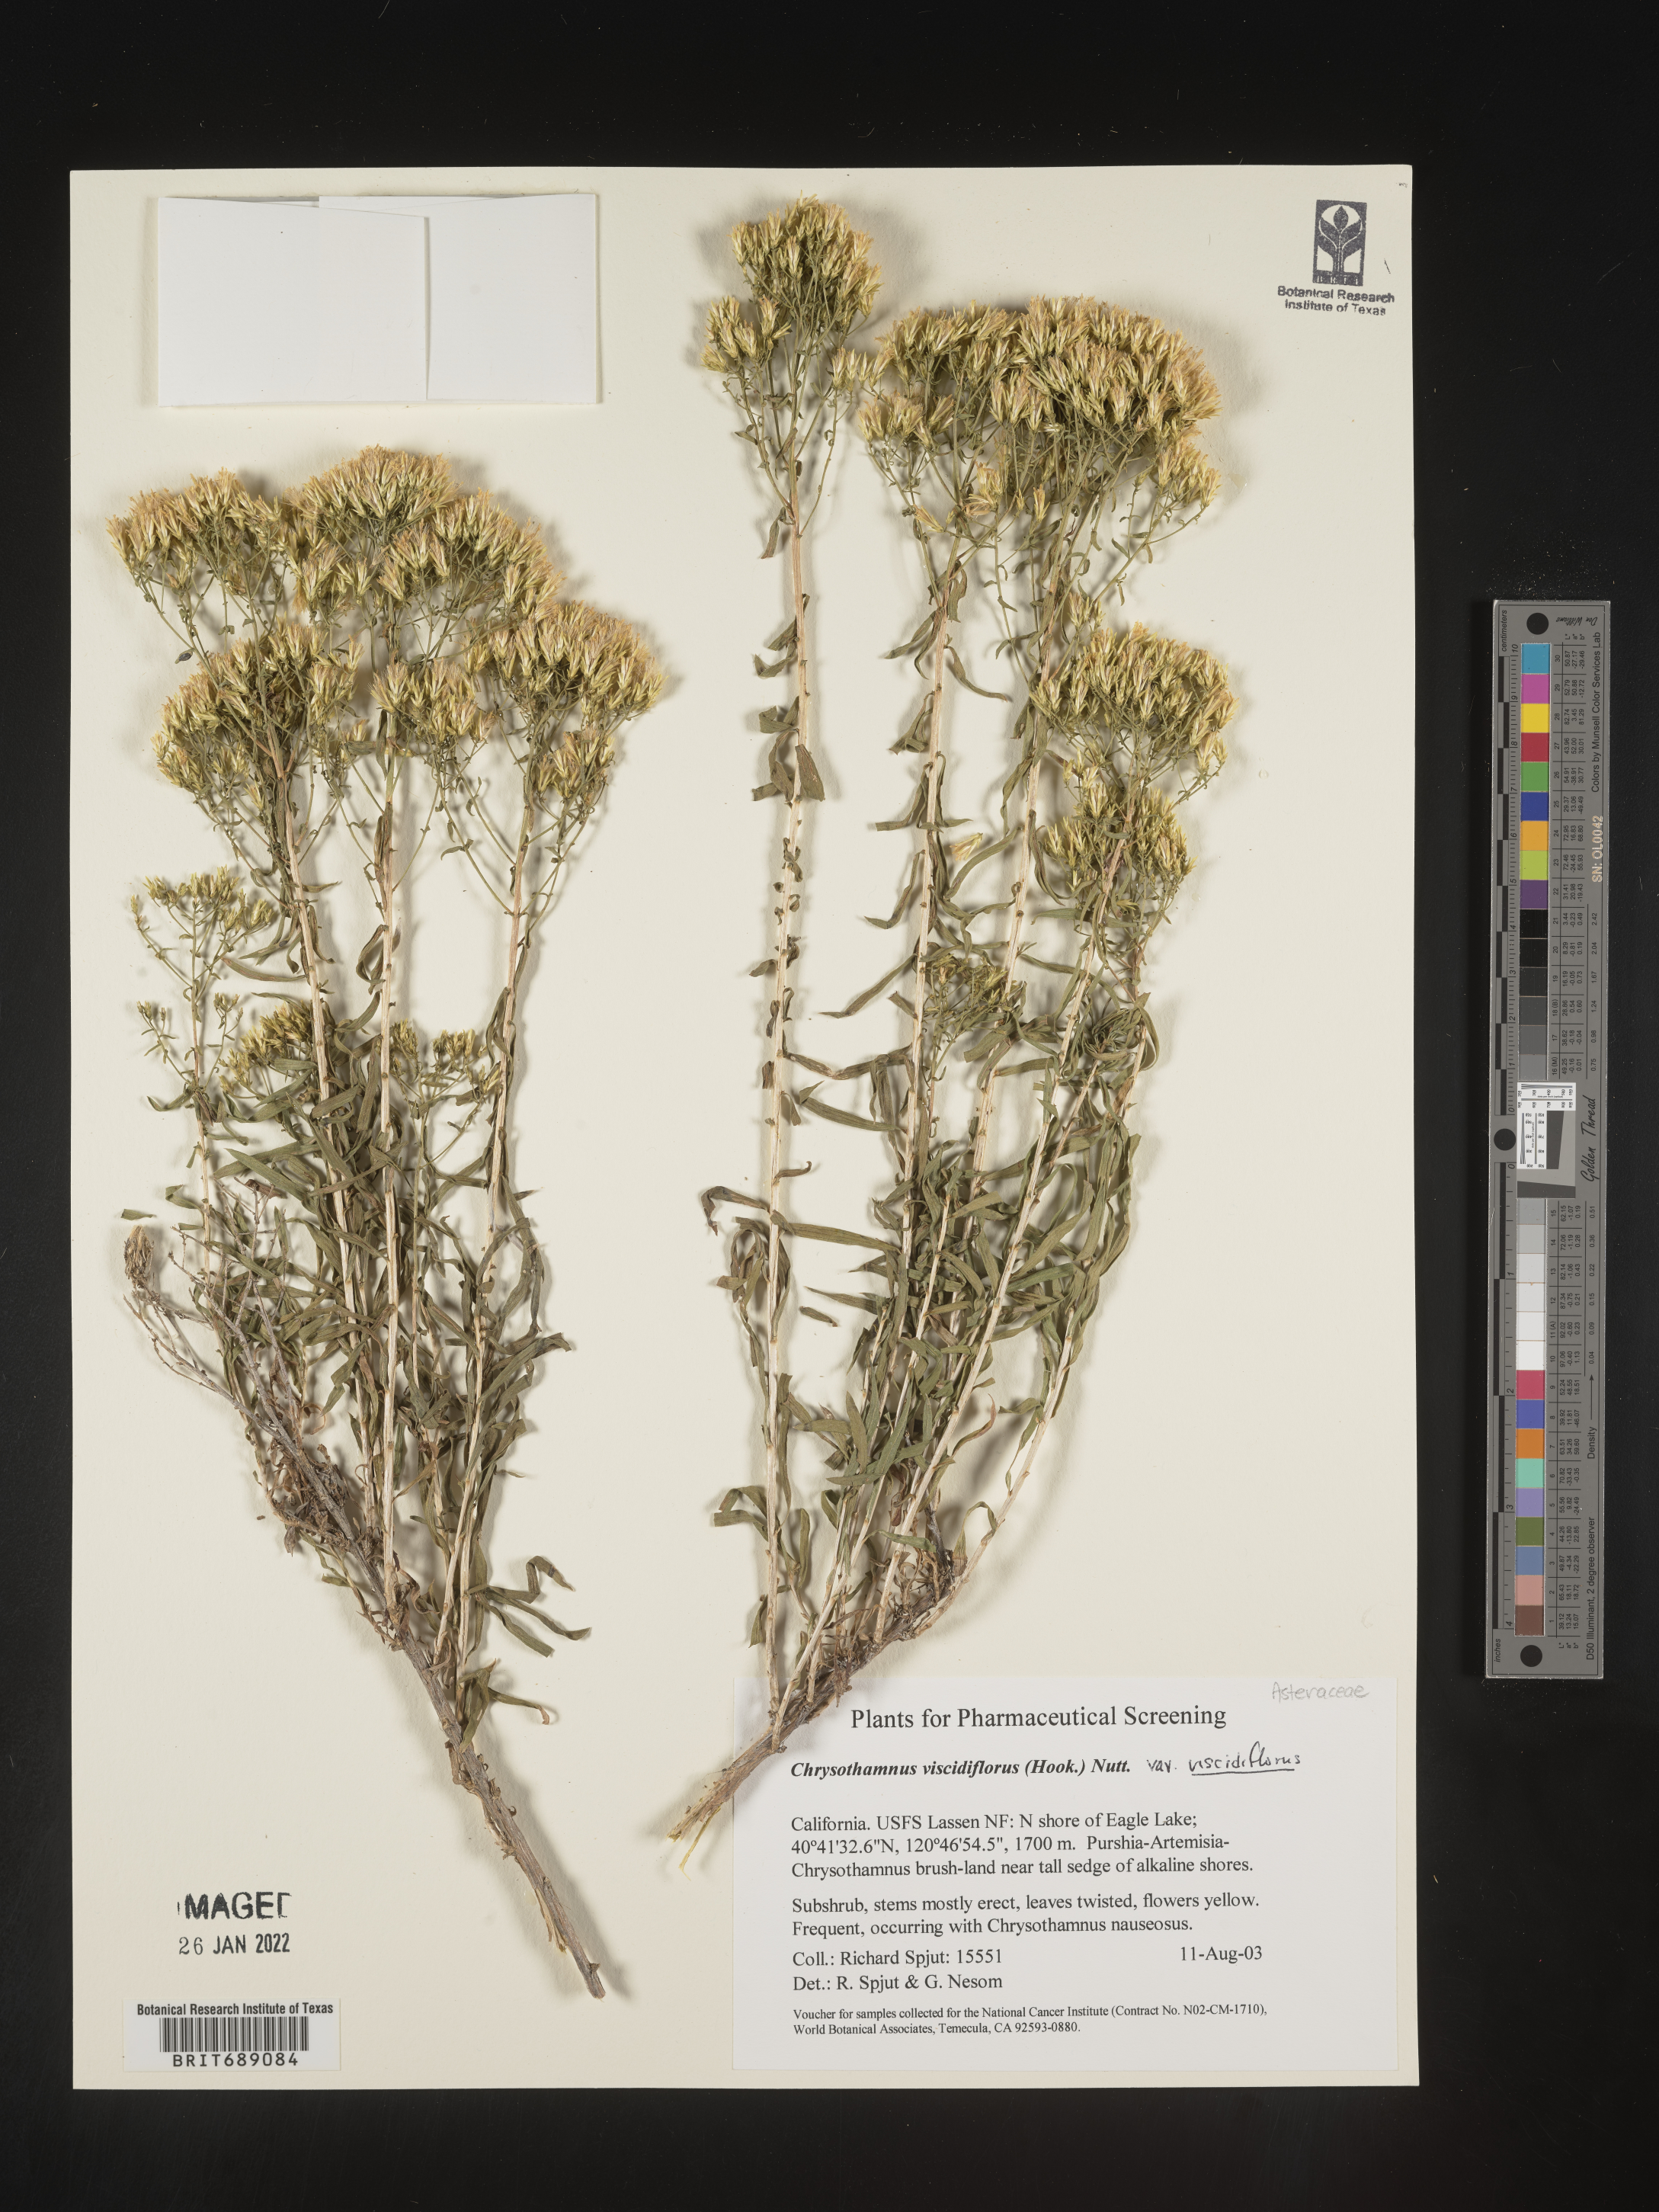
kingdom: Plantae
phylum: Tracheophyta
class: Magnoliopsida
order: Asterales
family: Asteraceae
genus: Chrysothamnus
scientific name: Chrysothamnus viscidiflorus
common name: Yellow rabbitbrush
